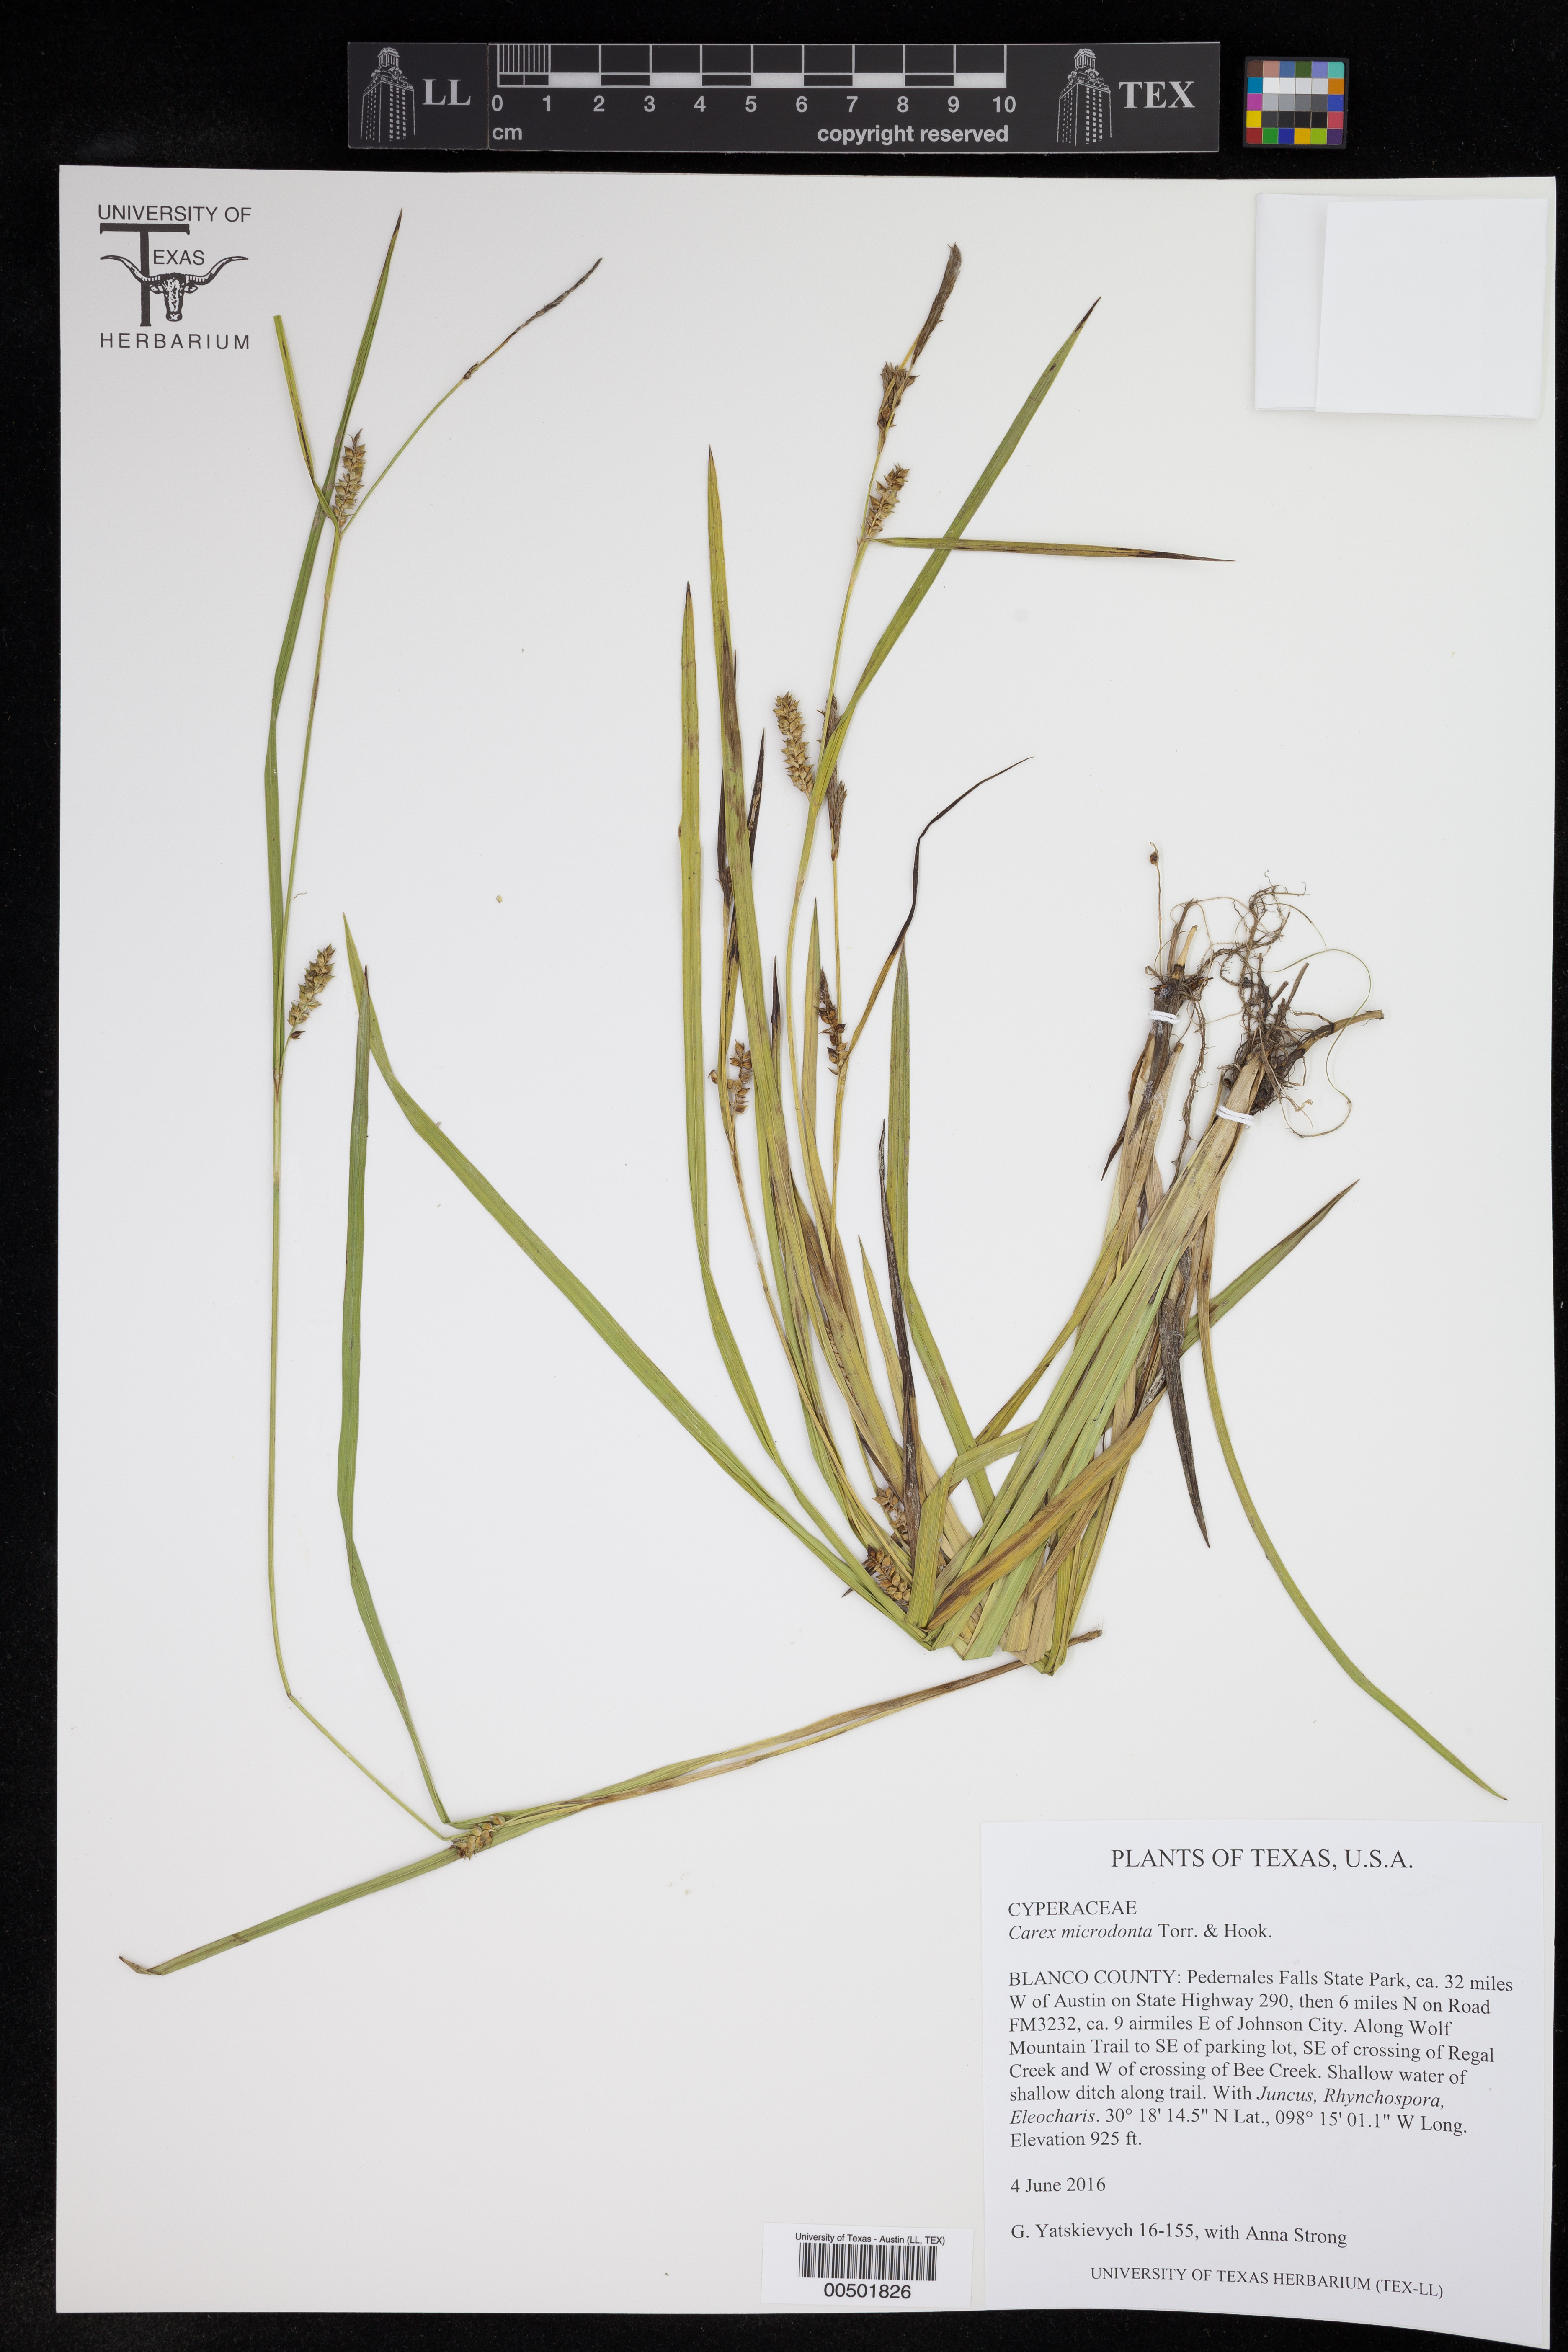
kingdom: Plantae
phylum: Tracheophyta
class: Liliopsida
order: Poales
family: Cyperaceae
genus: Carex
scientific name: Carex microdonta
